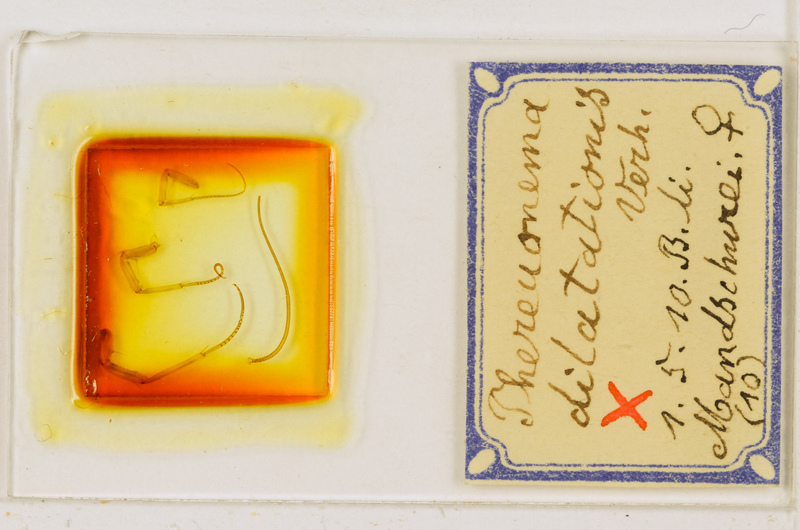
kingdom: Animalia
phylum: Arthropoda
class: Chilopoda
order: Scutigeromorpha
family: Scutigeridae
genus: Thereuonema
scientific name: Thereuonema tuberculata
